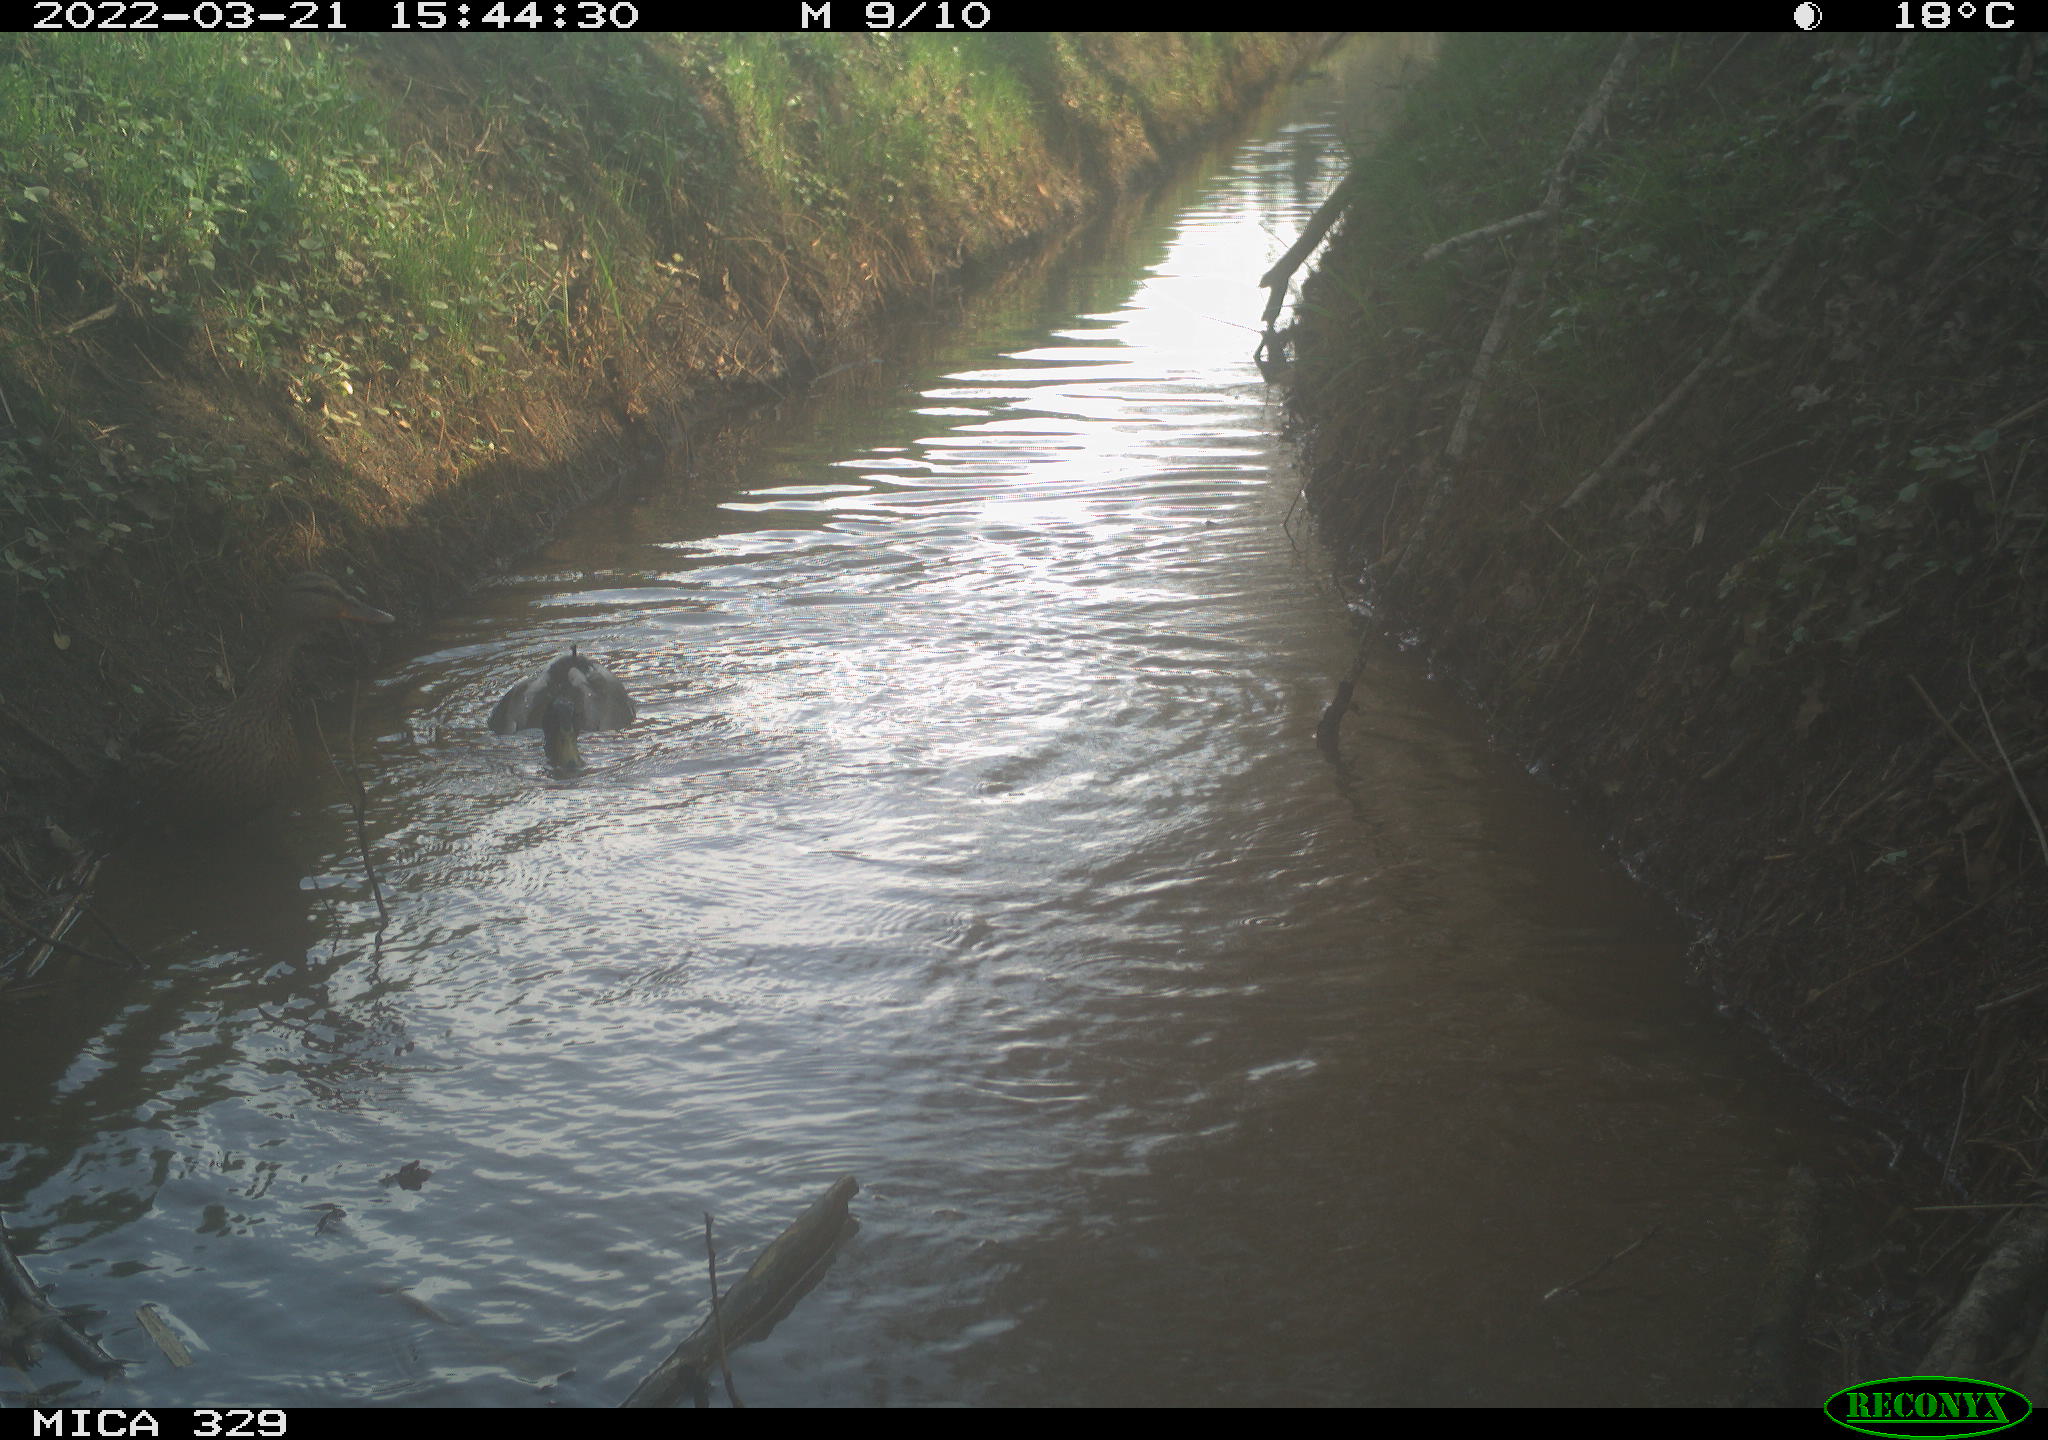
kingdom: Animalia
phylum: Chordata
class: Aves
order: Anseriformes
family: Anatidae
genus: Anas
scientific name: Anas platyrhynchos
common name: Mallard
